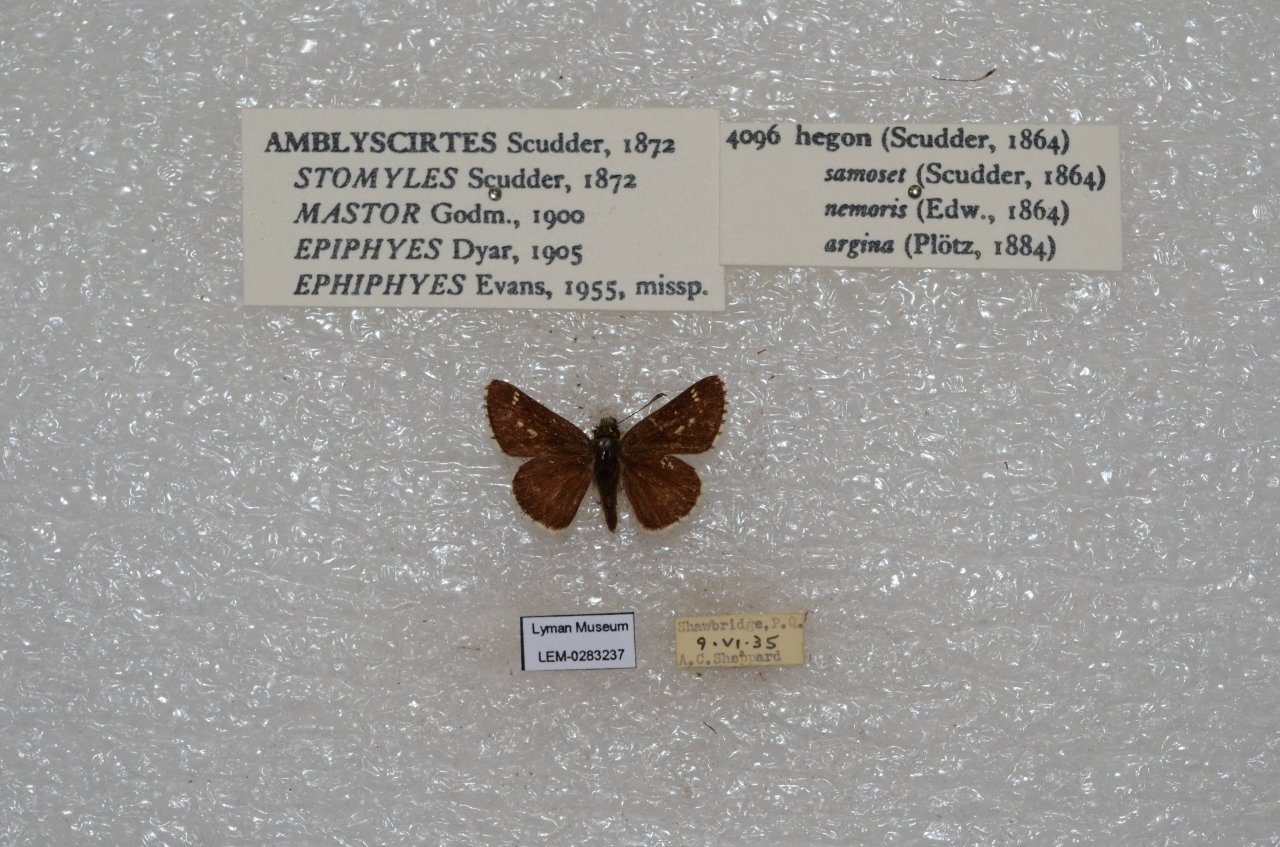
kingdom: Animalia
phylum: Arthropoda
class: Insecta
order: Lepidoptera
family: Hesperiidae
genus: Mastor
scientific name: Mastor hegon
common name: Pepper and Salt Skipper
